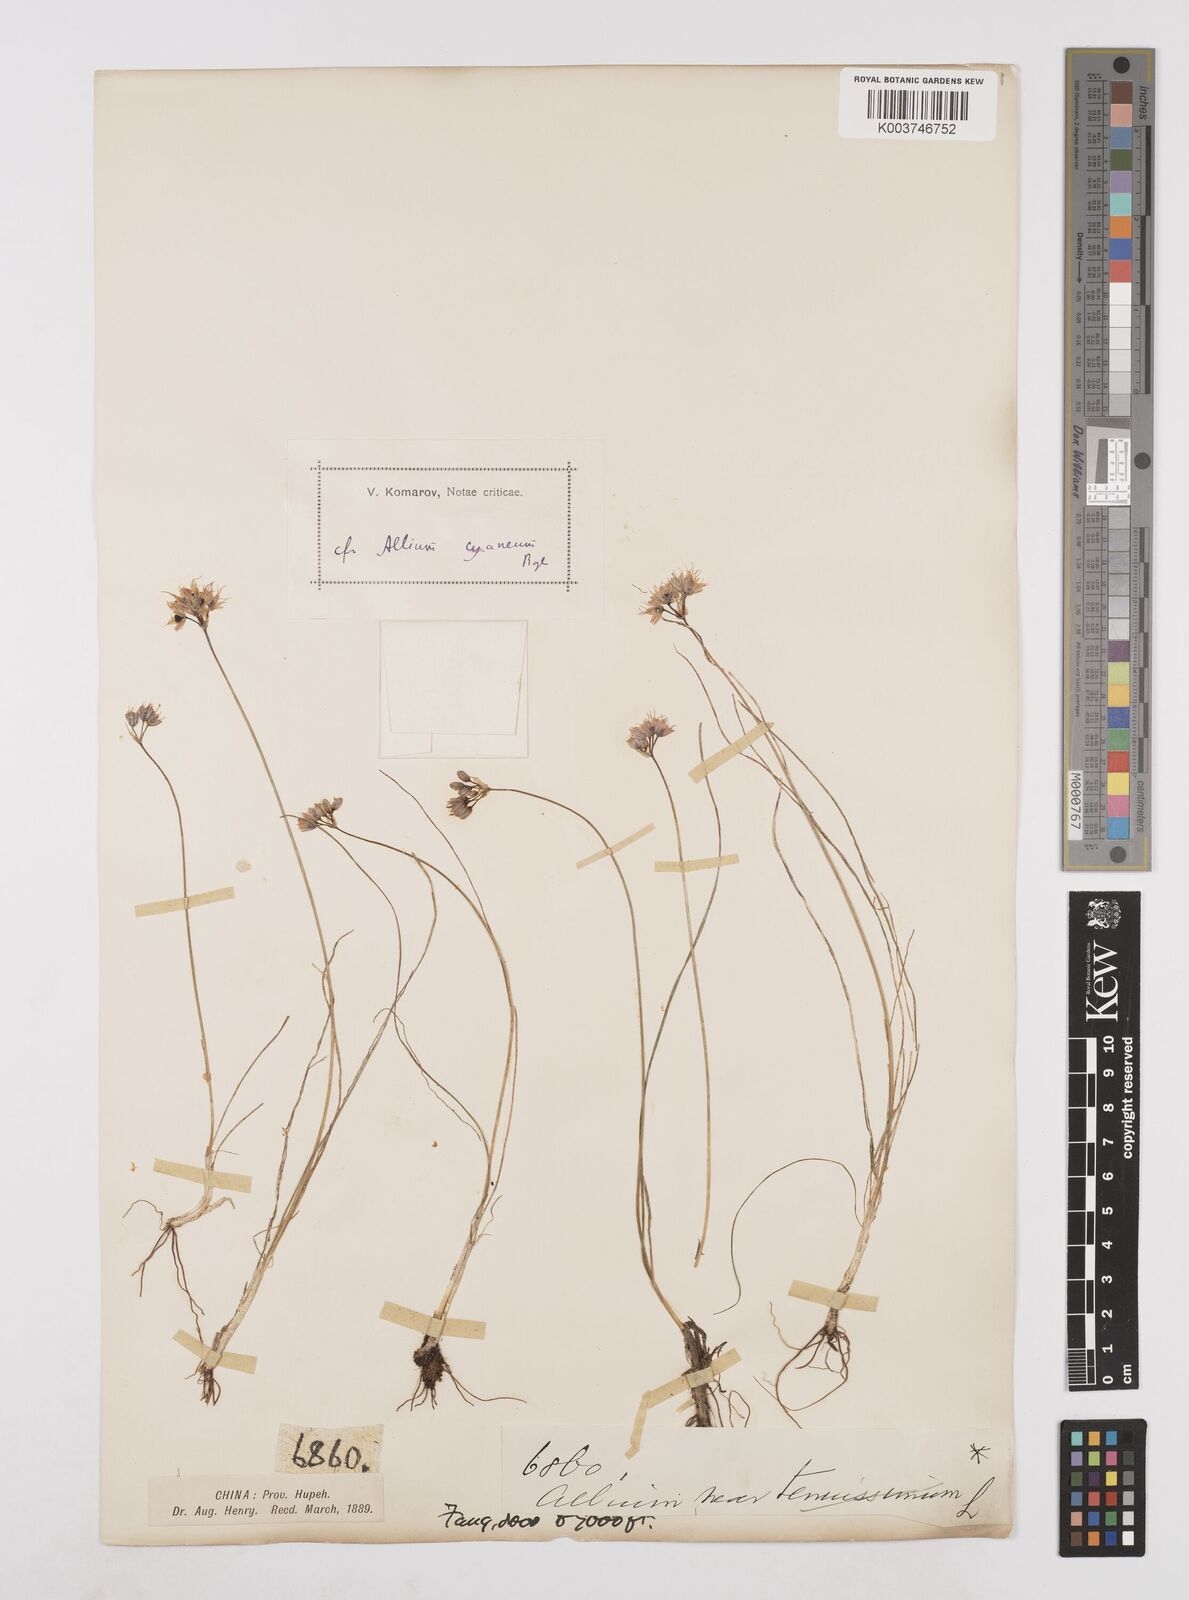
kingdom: Plantae
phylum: Tracheophyta
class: Liliopsida
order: Asparagales
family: Amaryllidaceae
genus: Allium
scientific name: Allium cyaneum
